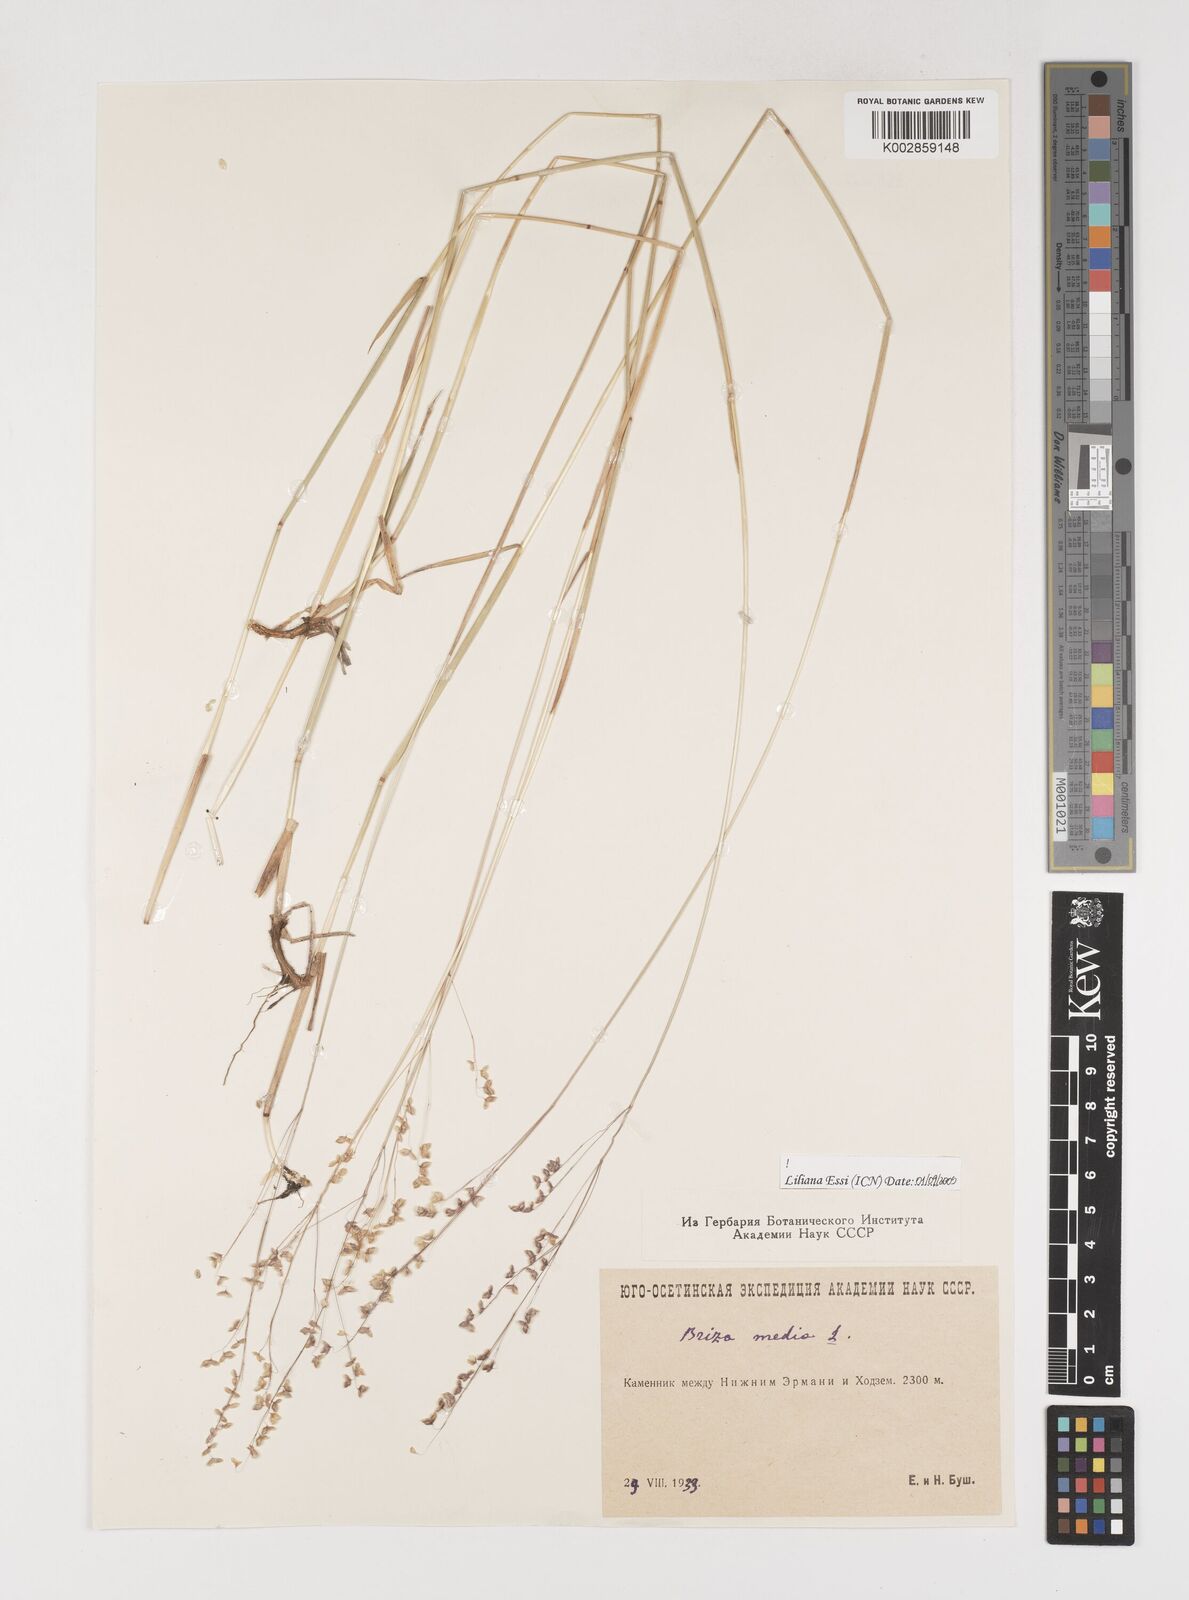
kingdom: Plantae
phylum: Tracheophyta
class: Liliopsida
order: Poales
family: Poaceae
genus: Briza
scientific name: Briza media
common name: Quaking grass
